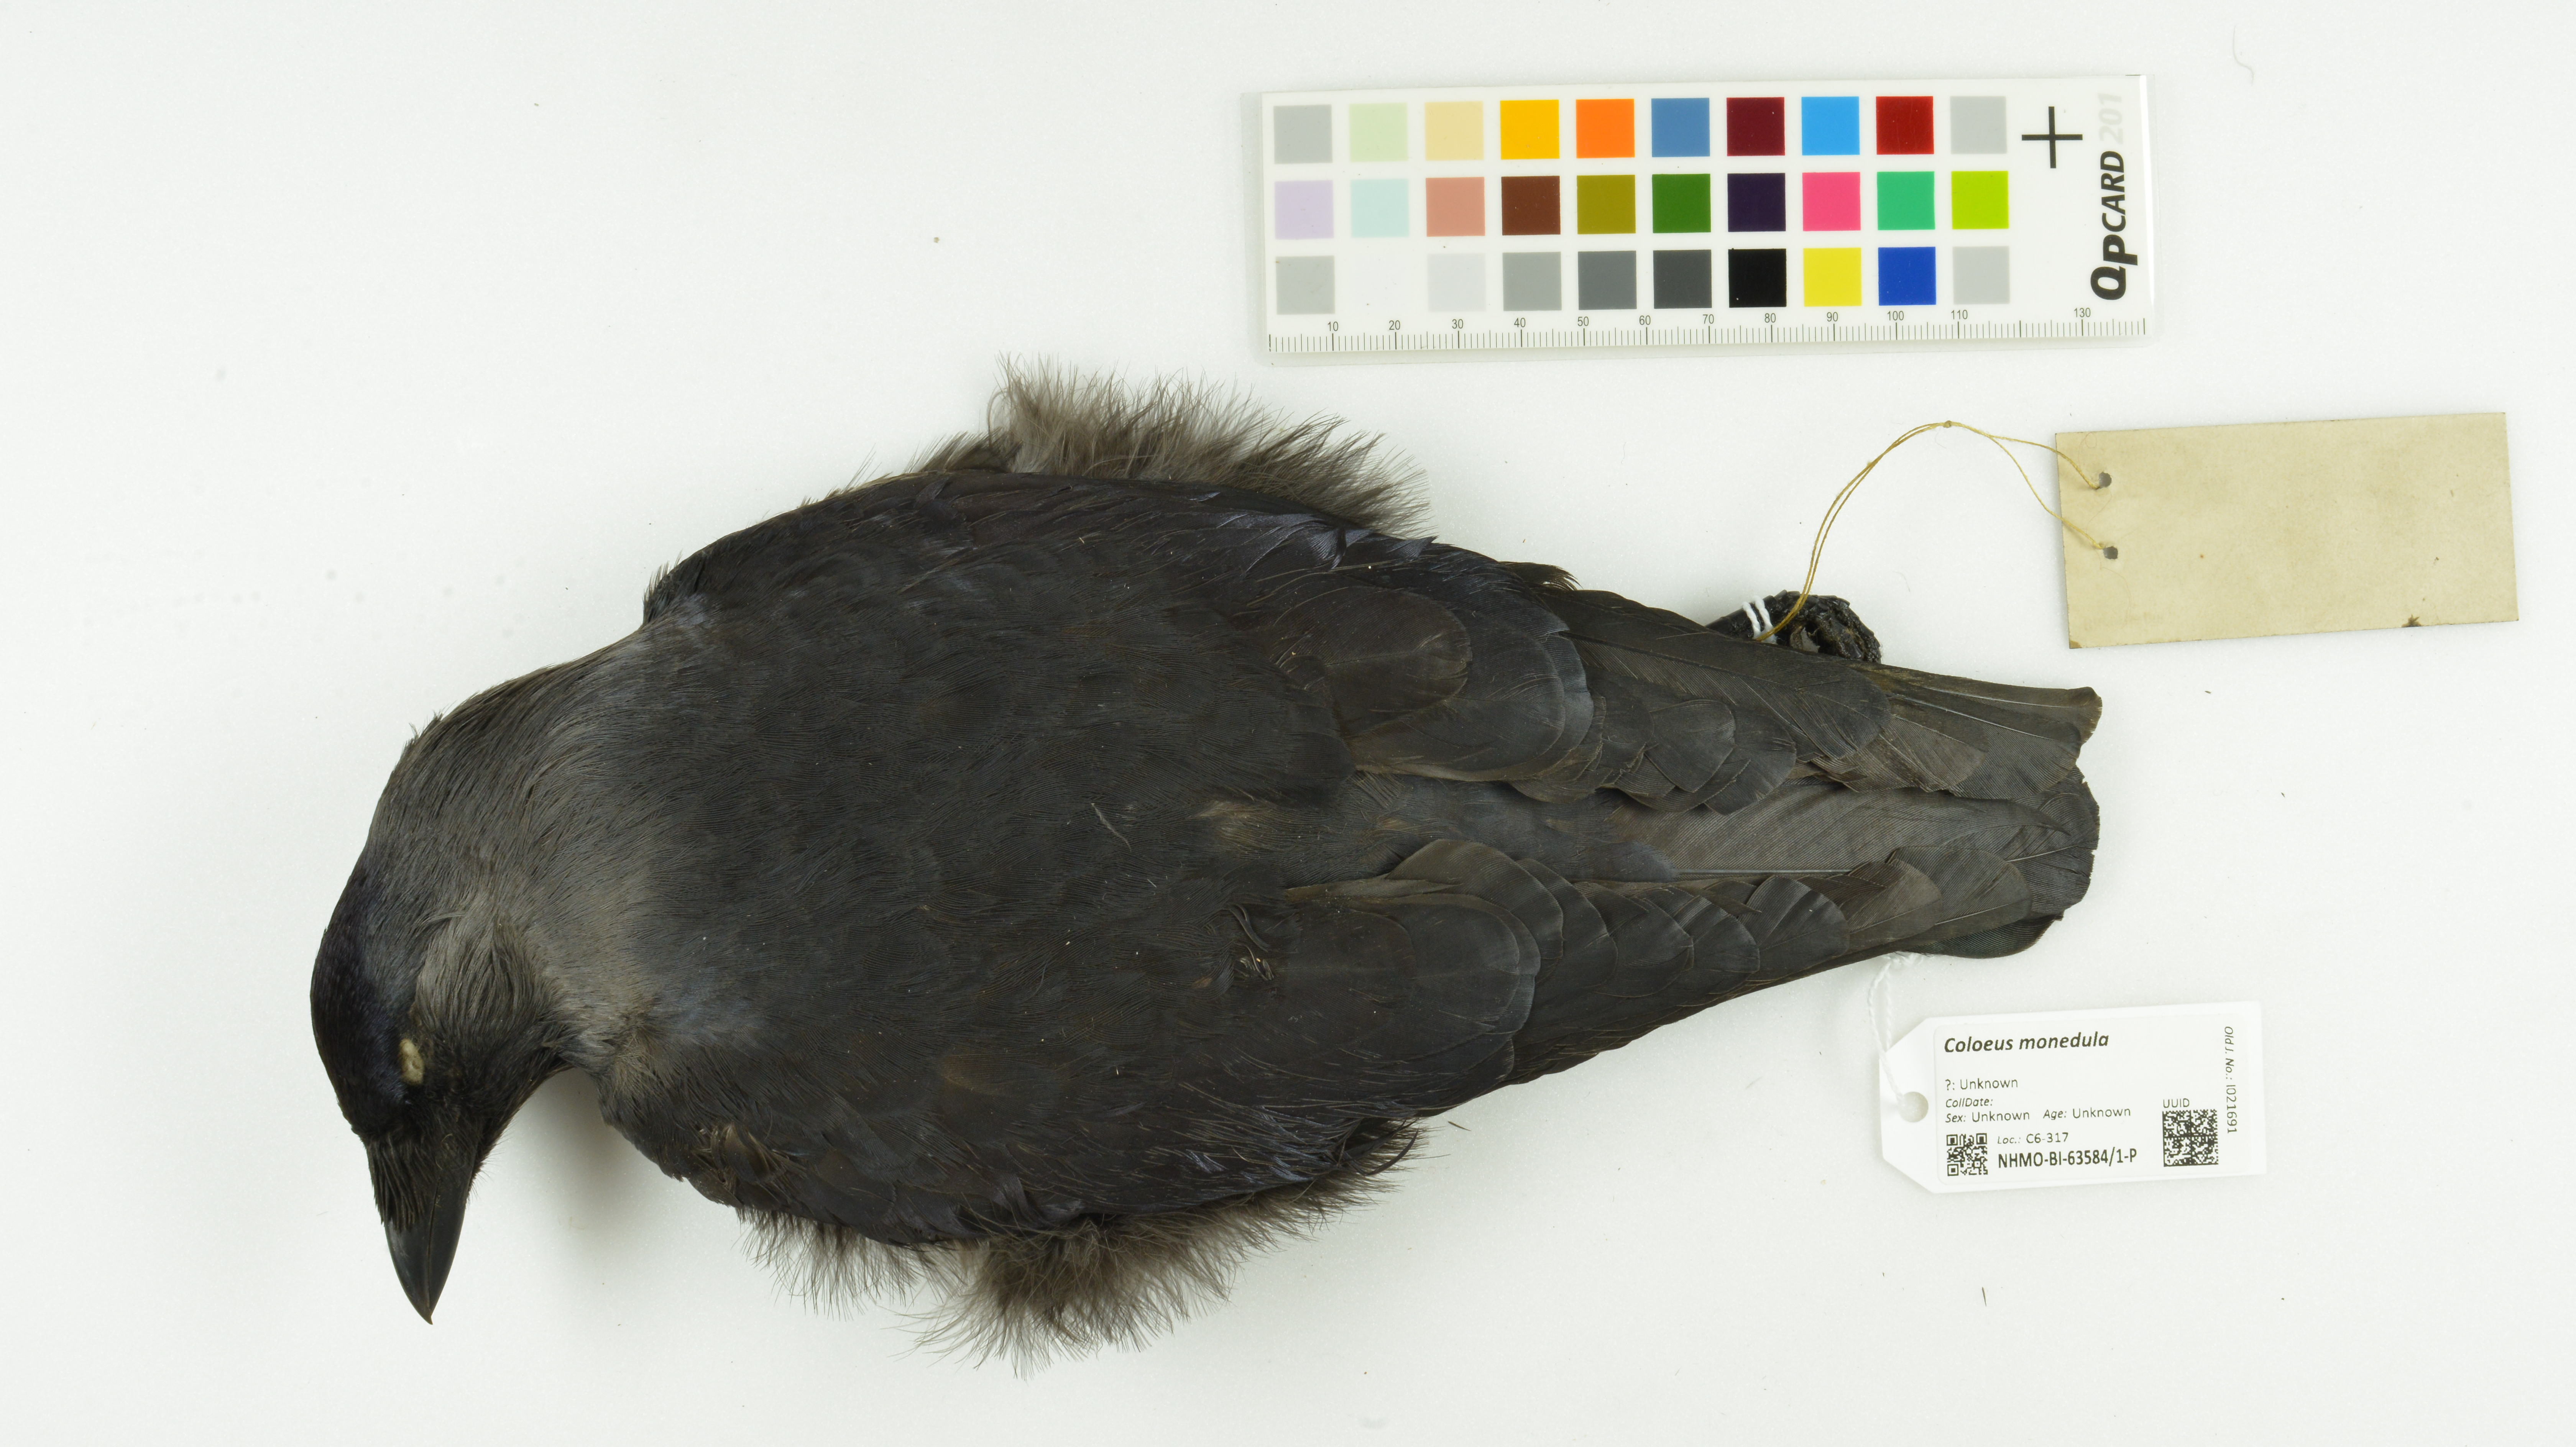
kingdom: Animalia
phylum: Chordata
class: Aves
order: Passeriformes
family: Corvidae
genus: Coloeus
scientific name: Coloeus monedula
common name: Western jackdaw
